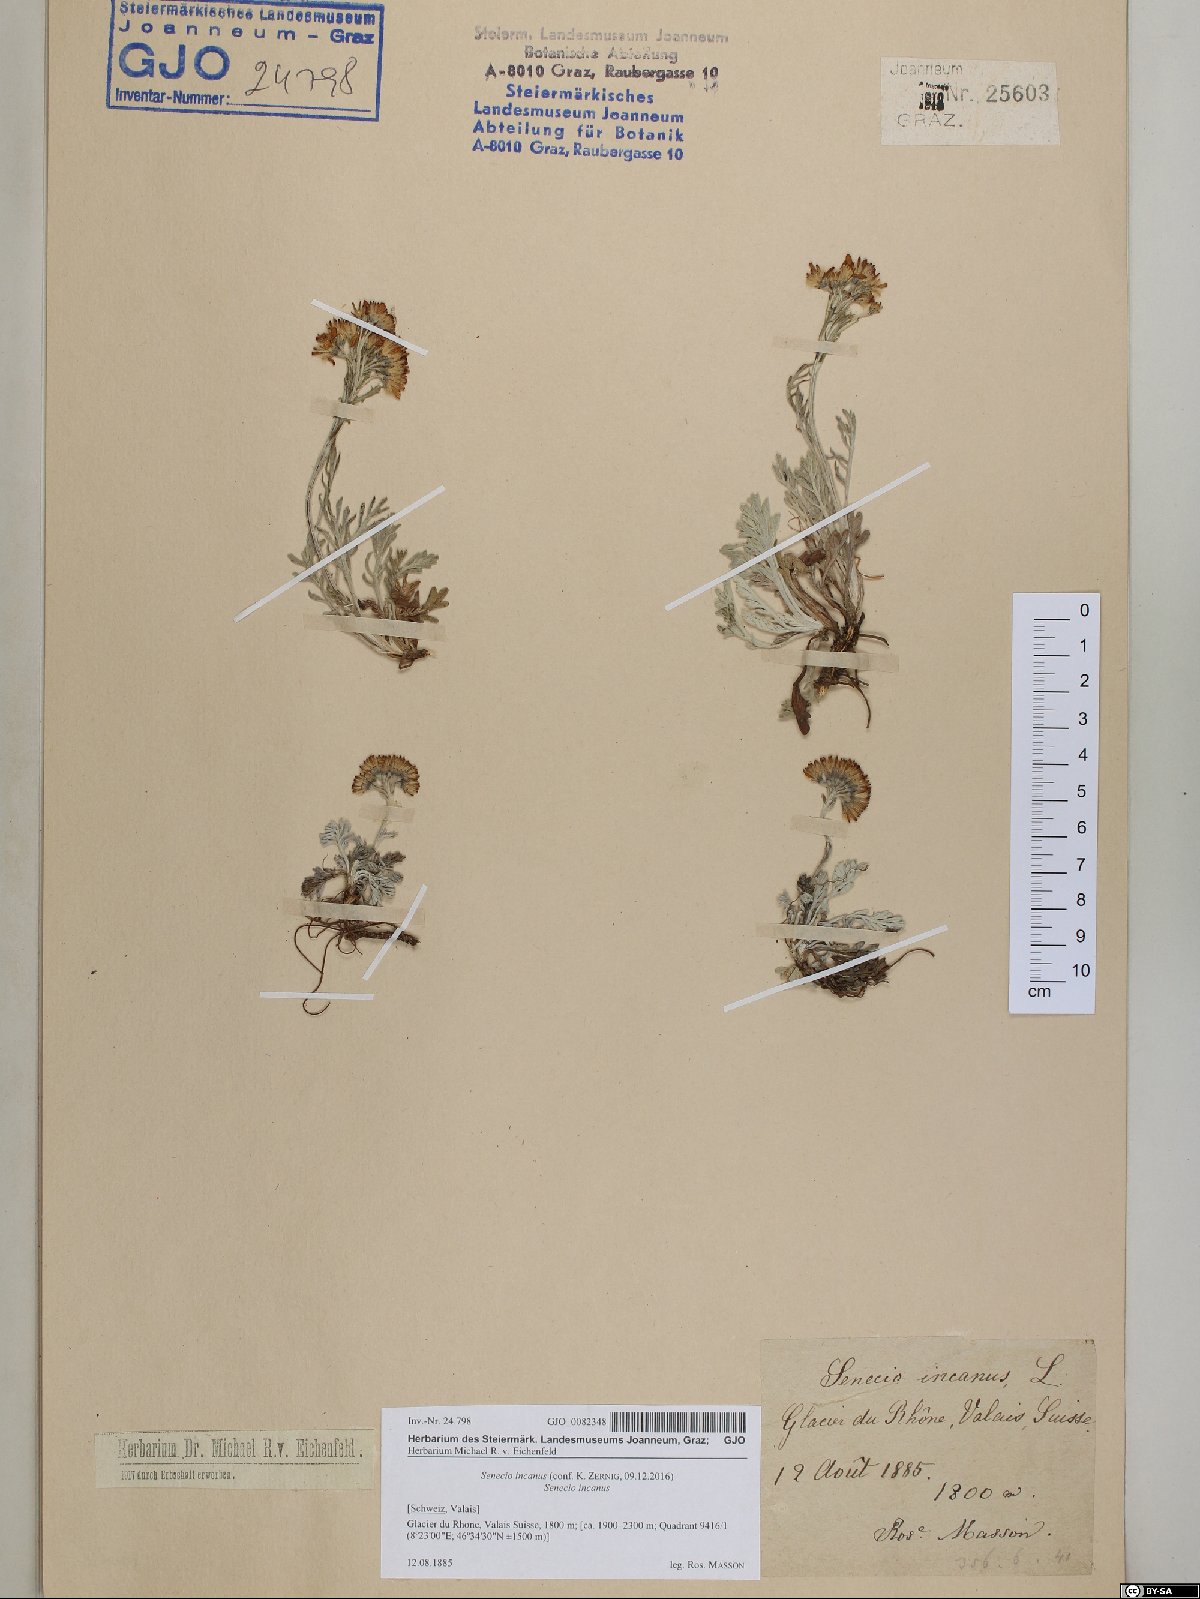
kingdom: Plantae
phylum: Tracheophyta
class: Magnoliopsida
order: Asterales
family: Asteraceae
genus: Jacobaea
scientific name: Jacobaea incana
